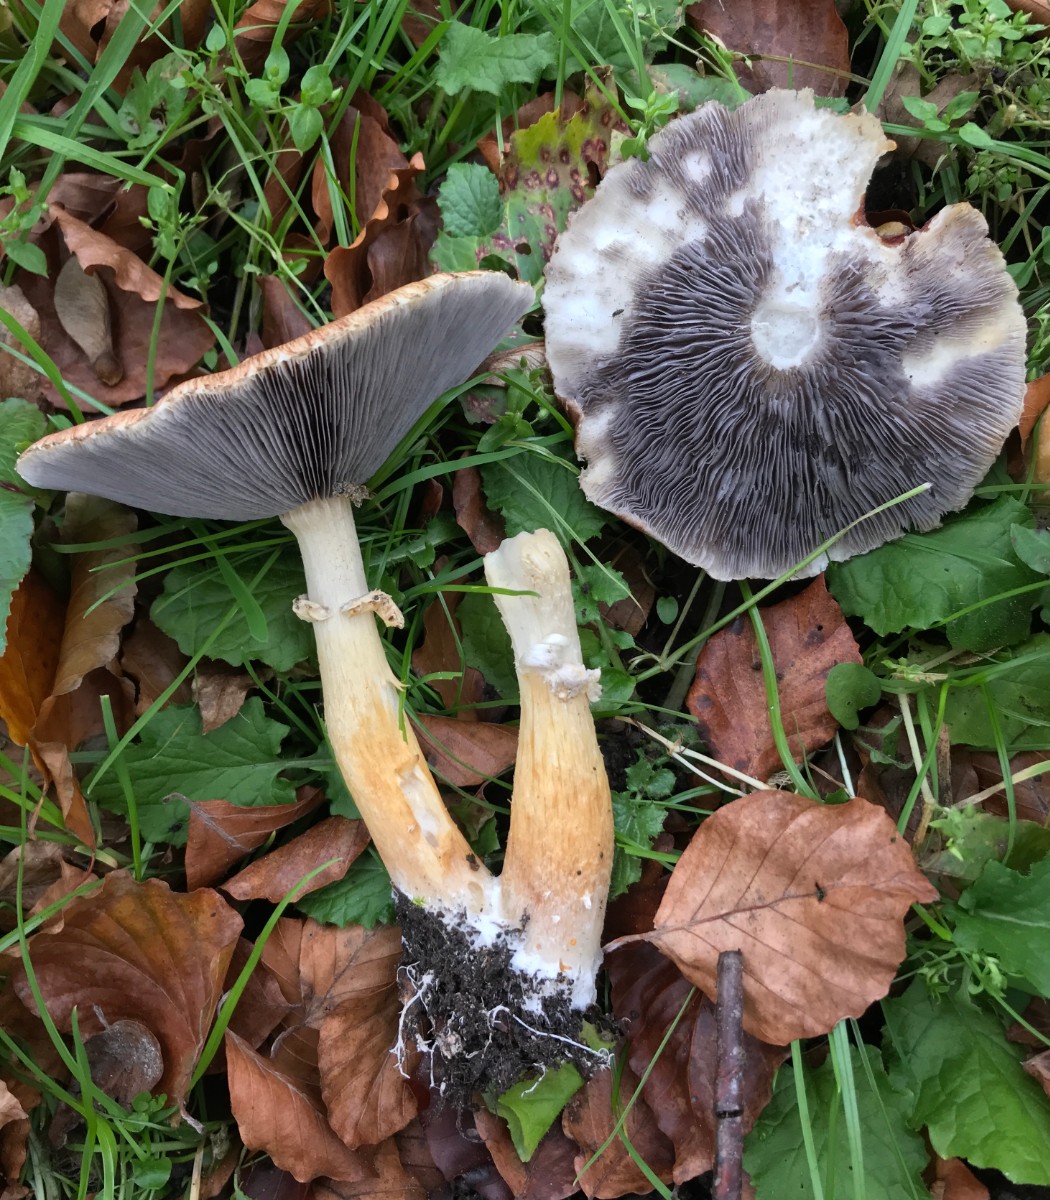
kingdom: Fungi
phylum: Basidiomycota
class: Agaricomycetes
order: Agaricales
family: Strophariaceae
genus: Stropharia
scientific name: Stropharia rugosoannulata
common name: rødbrun bredblad
